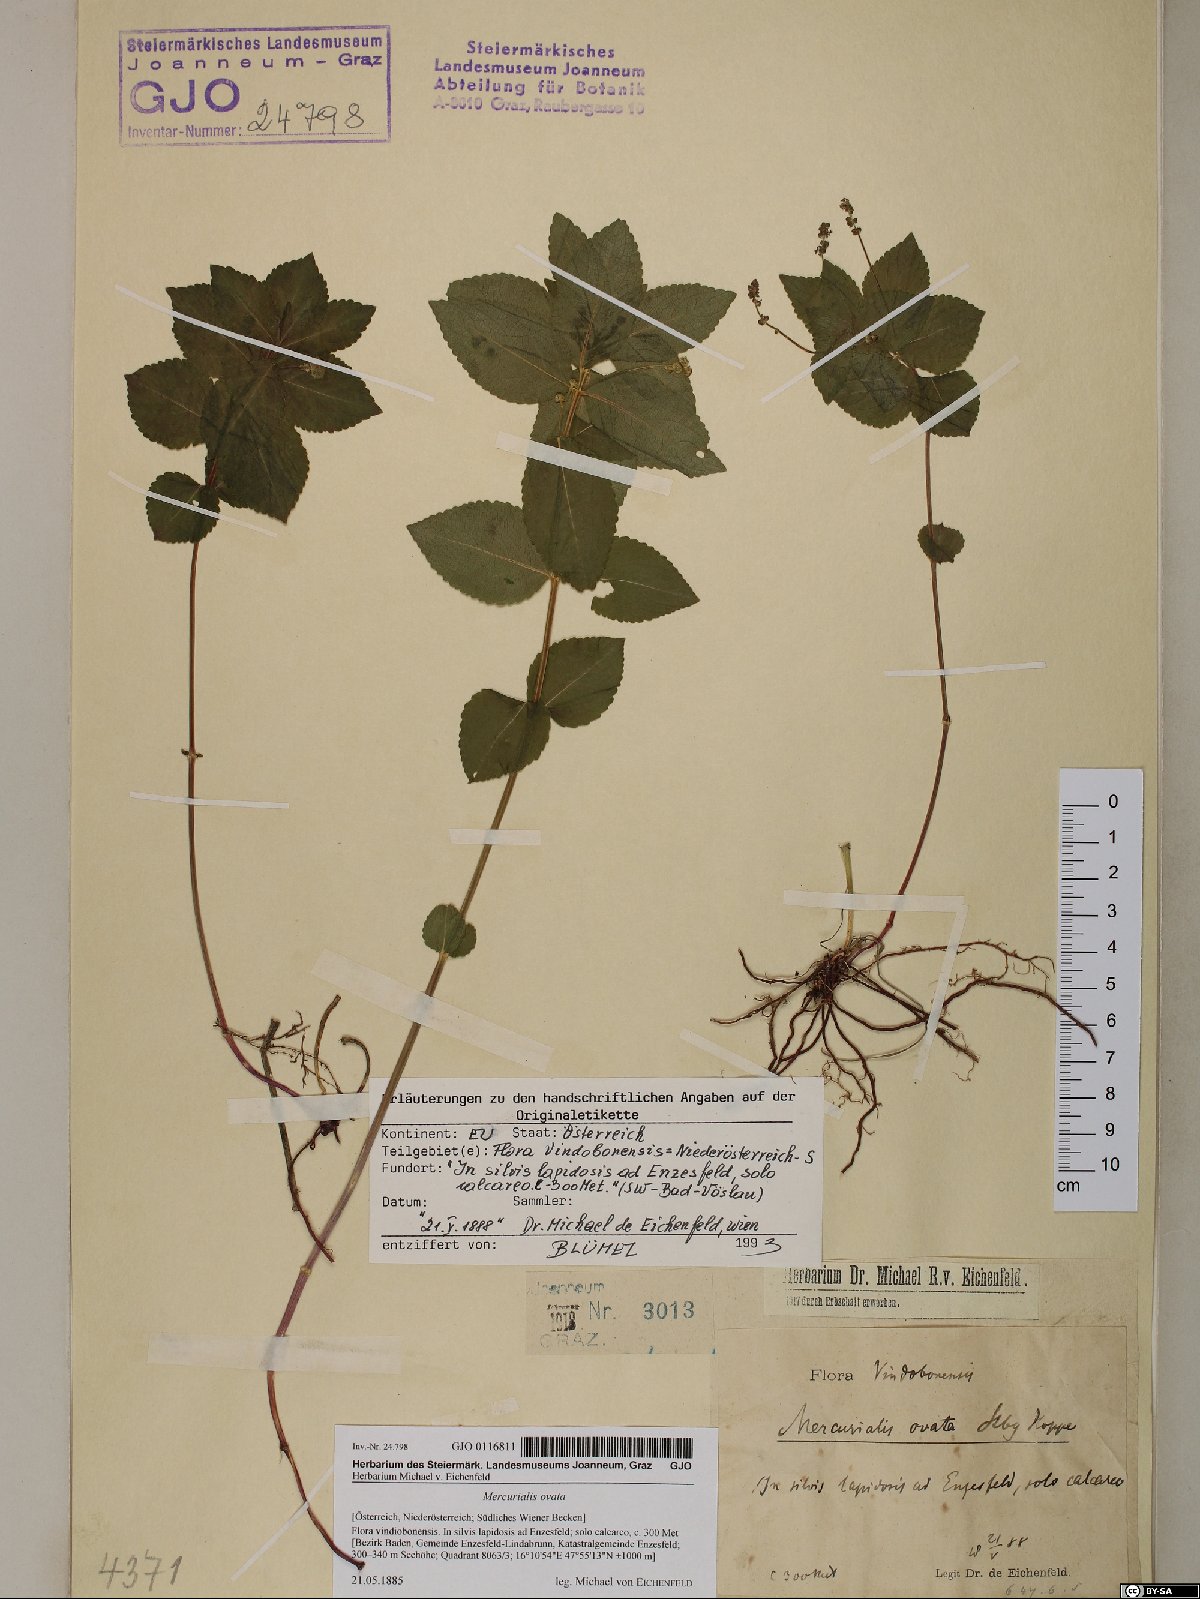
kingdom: Plantae
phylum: Tracheophyta
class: Magnoliopsida
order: Malpighiales
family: Euphorbiaceae
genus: Mercurialis
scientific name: Mercurialis ovata
